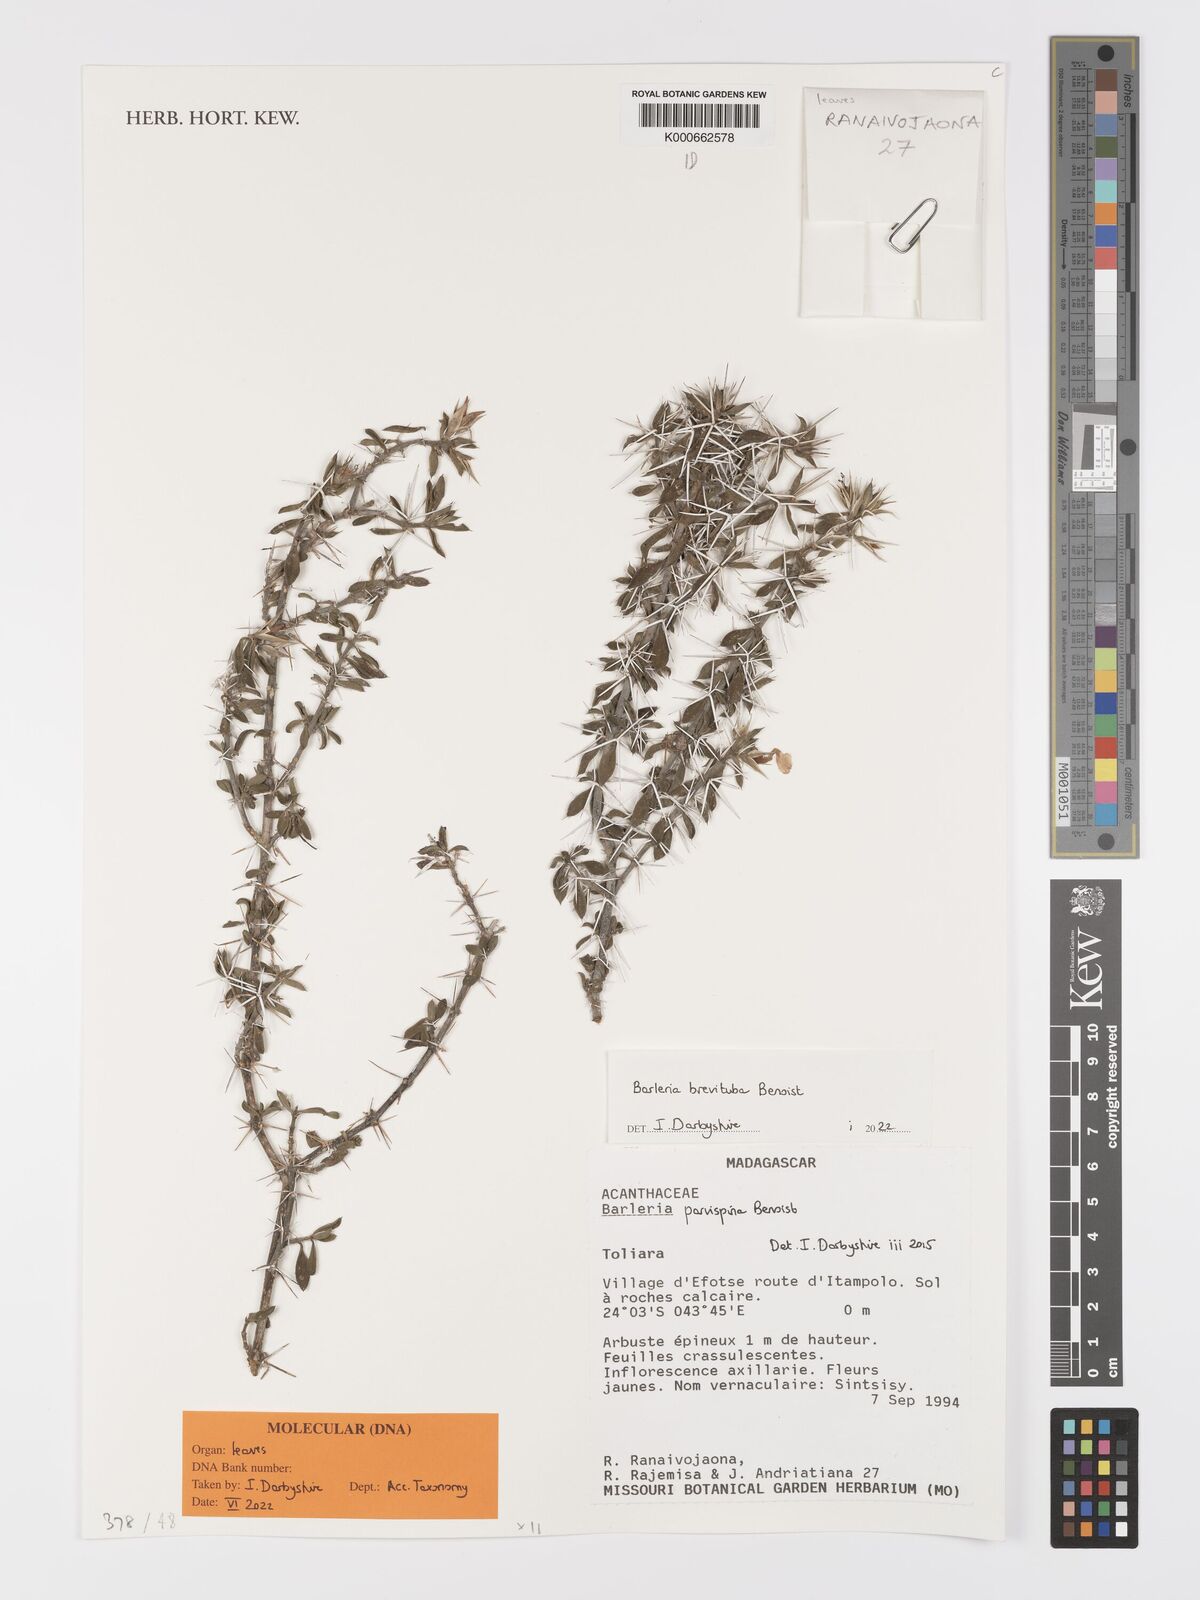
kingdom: Plantae
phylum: Tracheophyta
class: Magnoliopsida
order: Lamiales
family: Acanthaceae
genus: Barleria
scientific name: Barleria parvispina
